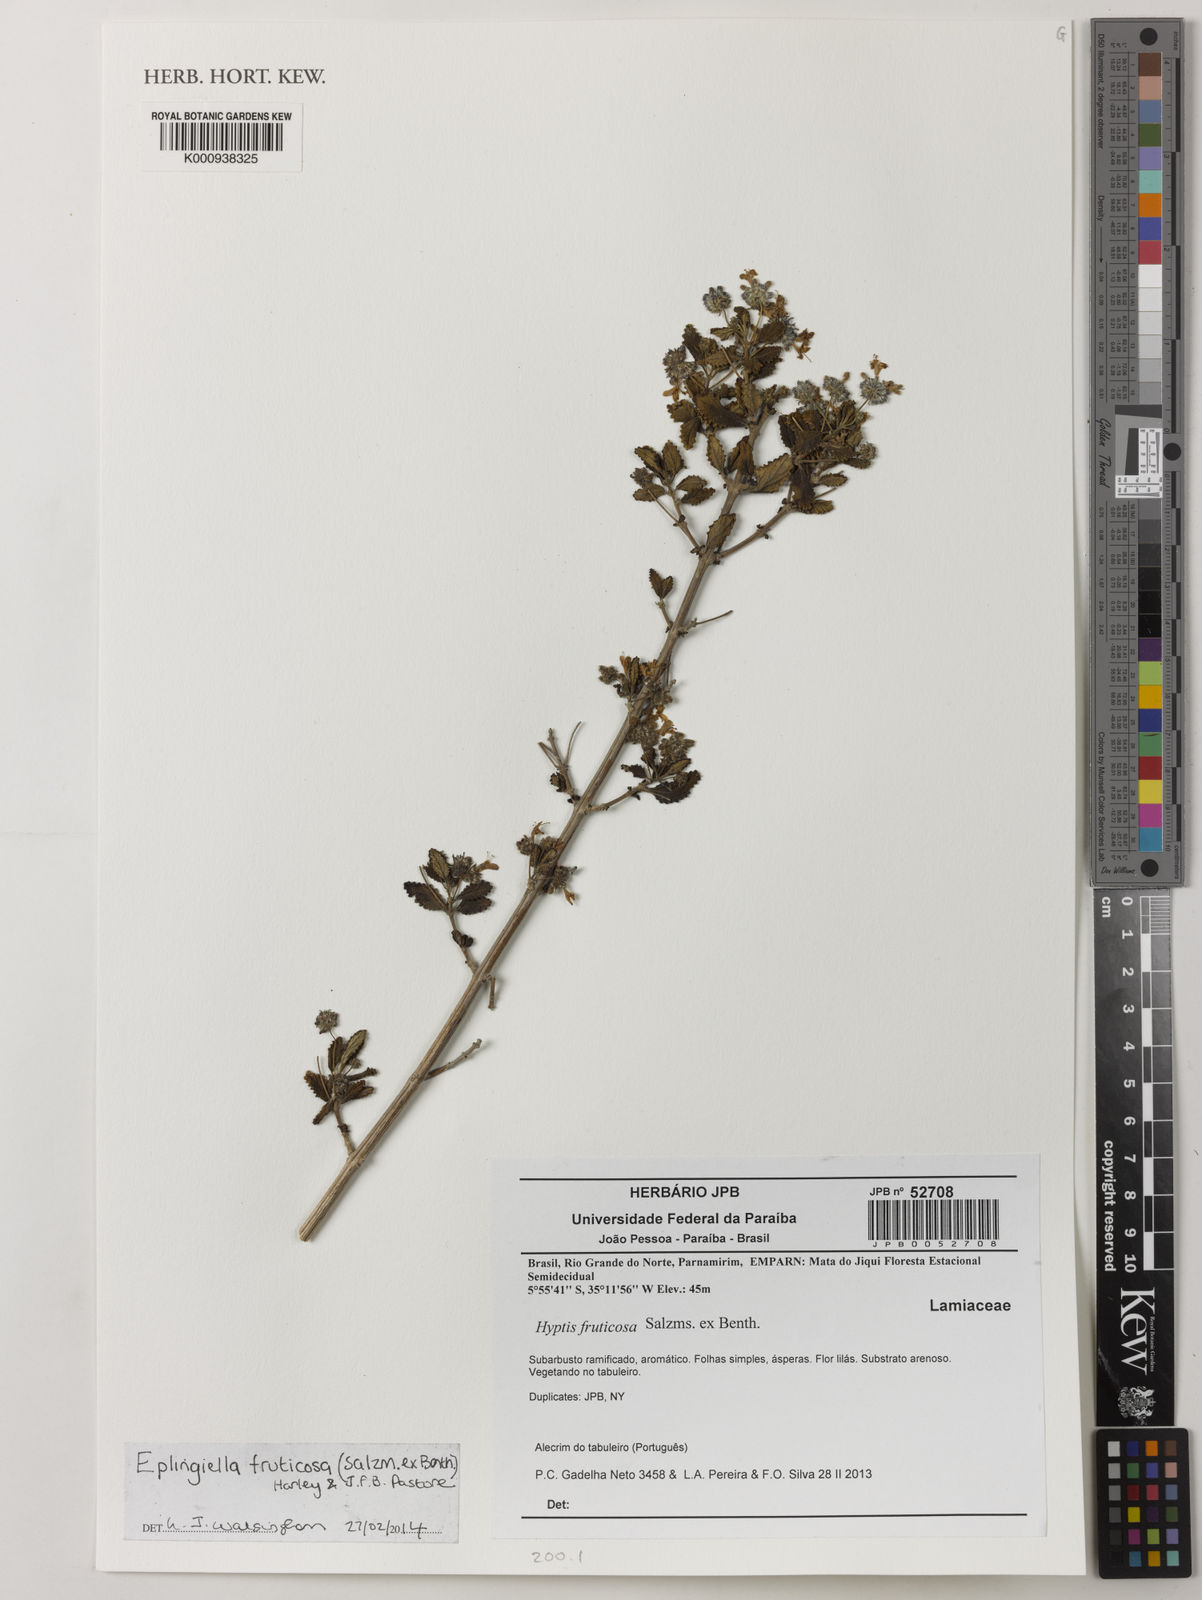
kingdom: Plantae
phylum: Tracheophyta
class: Magnoliopsida
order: Lamiales
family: Lamiaceae
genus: Eplingiella
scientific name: Eplingiella fruticosa
